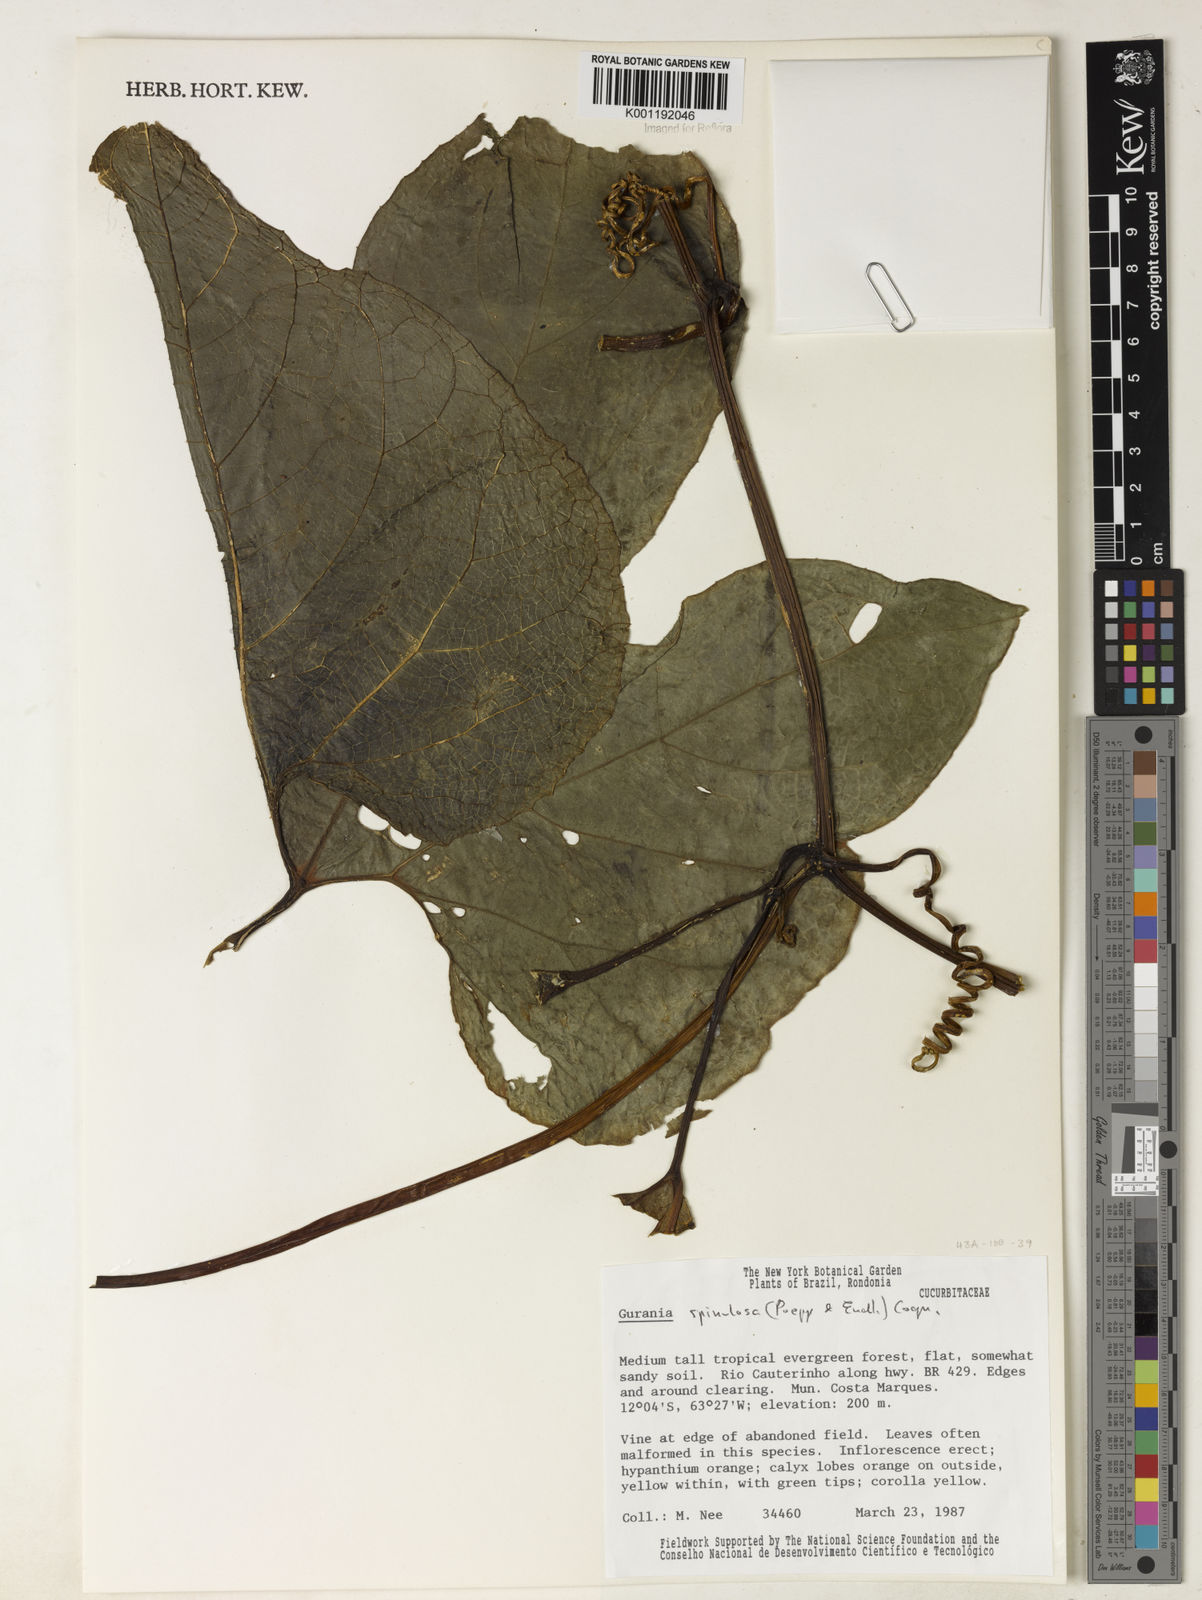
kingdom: Plantae
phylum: Tracheophyta
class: Magnoliopsida
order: Cucurbitales
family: Cucurbitaceae
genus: Gurania
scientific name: Gurania lobata
